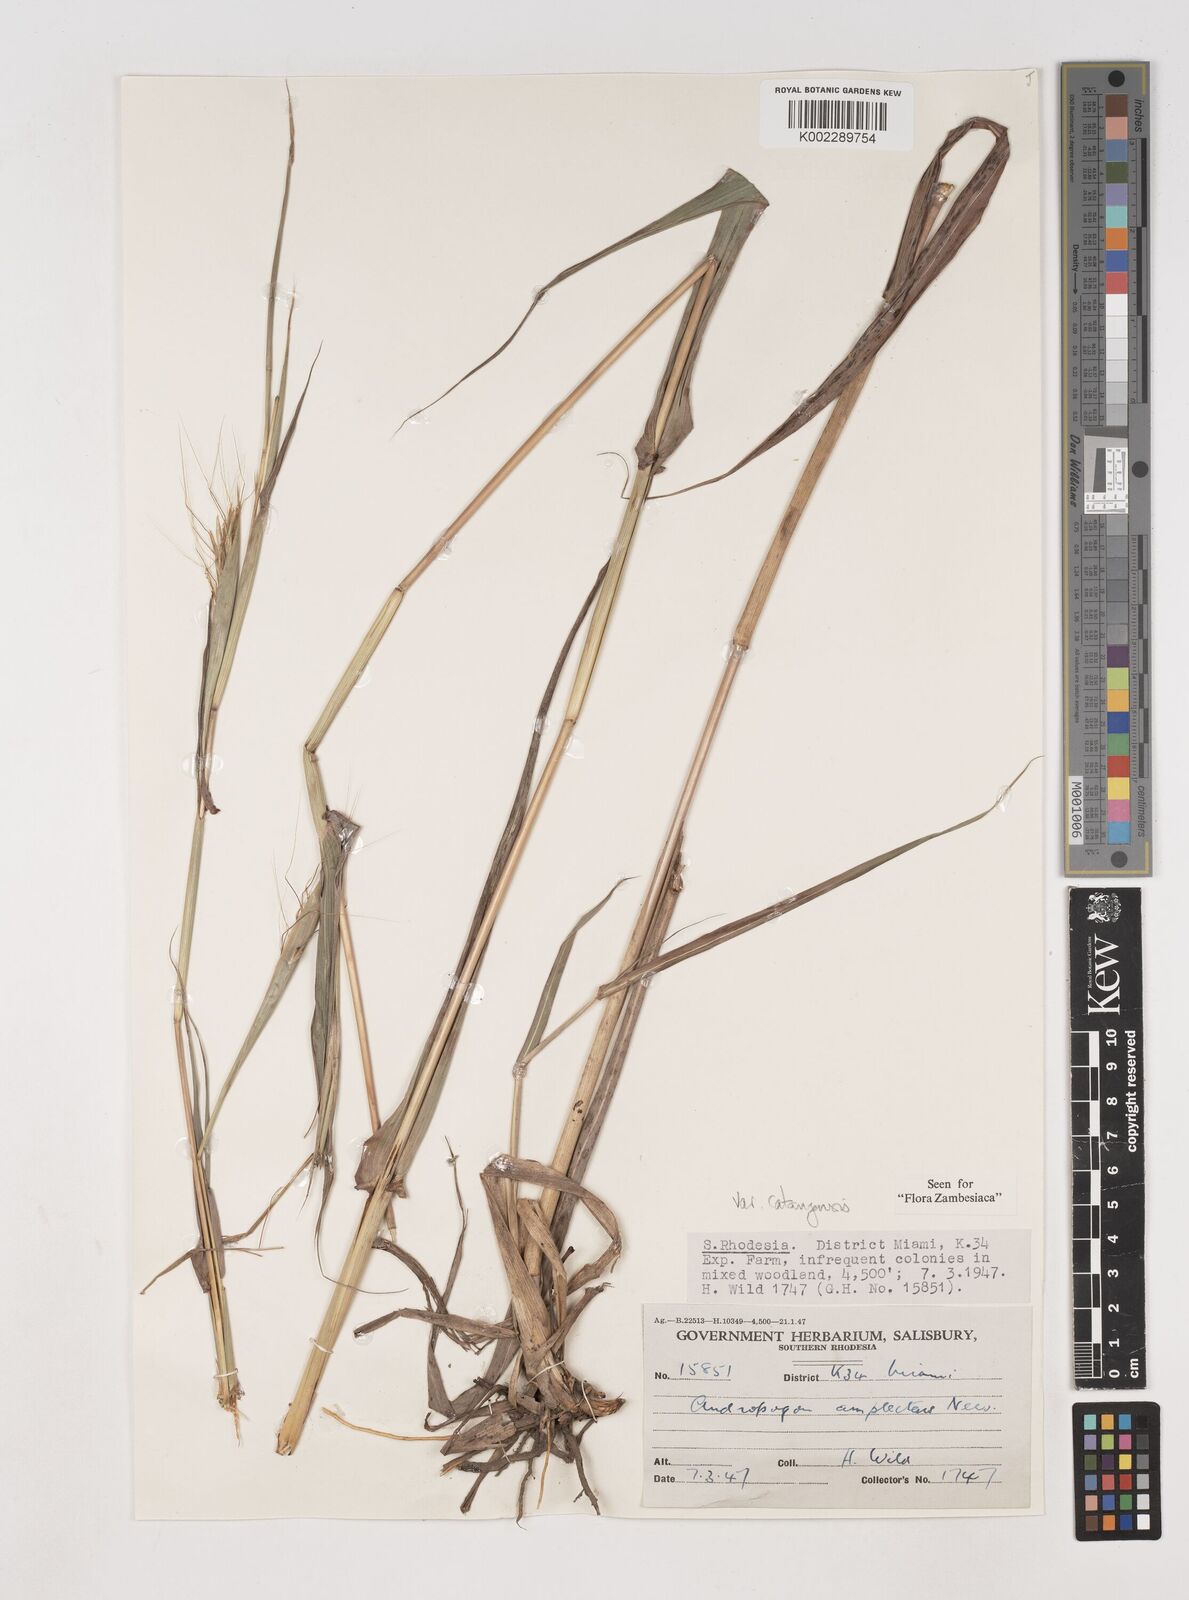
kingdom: Plantae
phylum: Tracheophyta
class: Liliopsida
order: Poales
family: Poaceae
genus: Diheteropogon
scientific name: Diheteropogon amplectens
